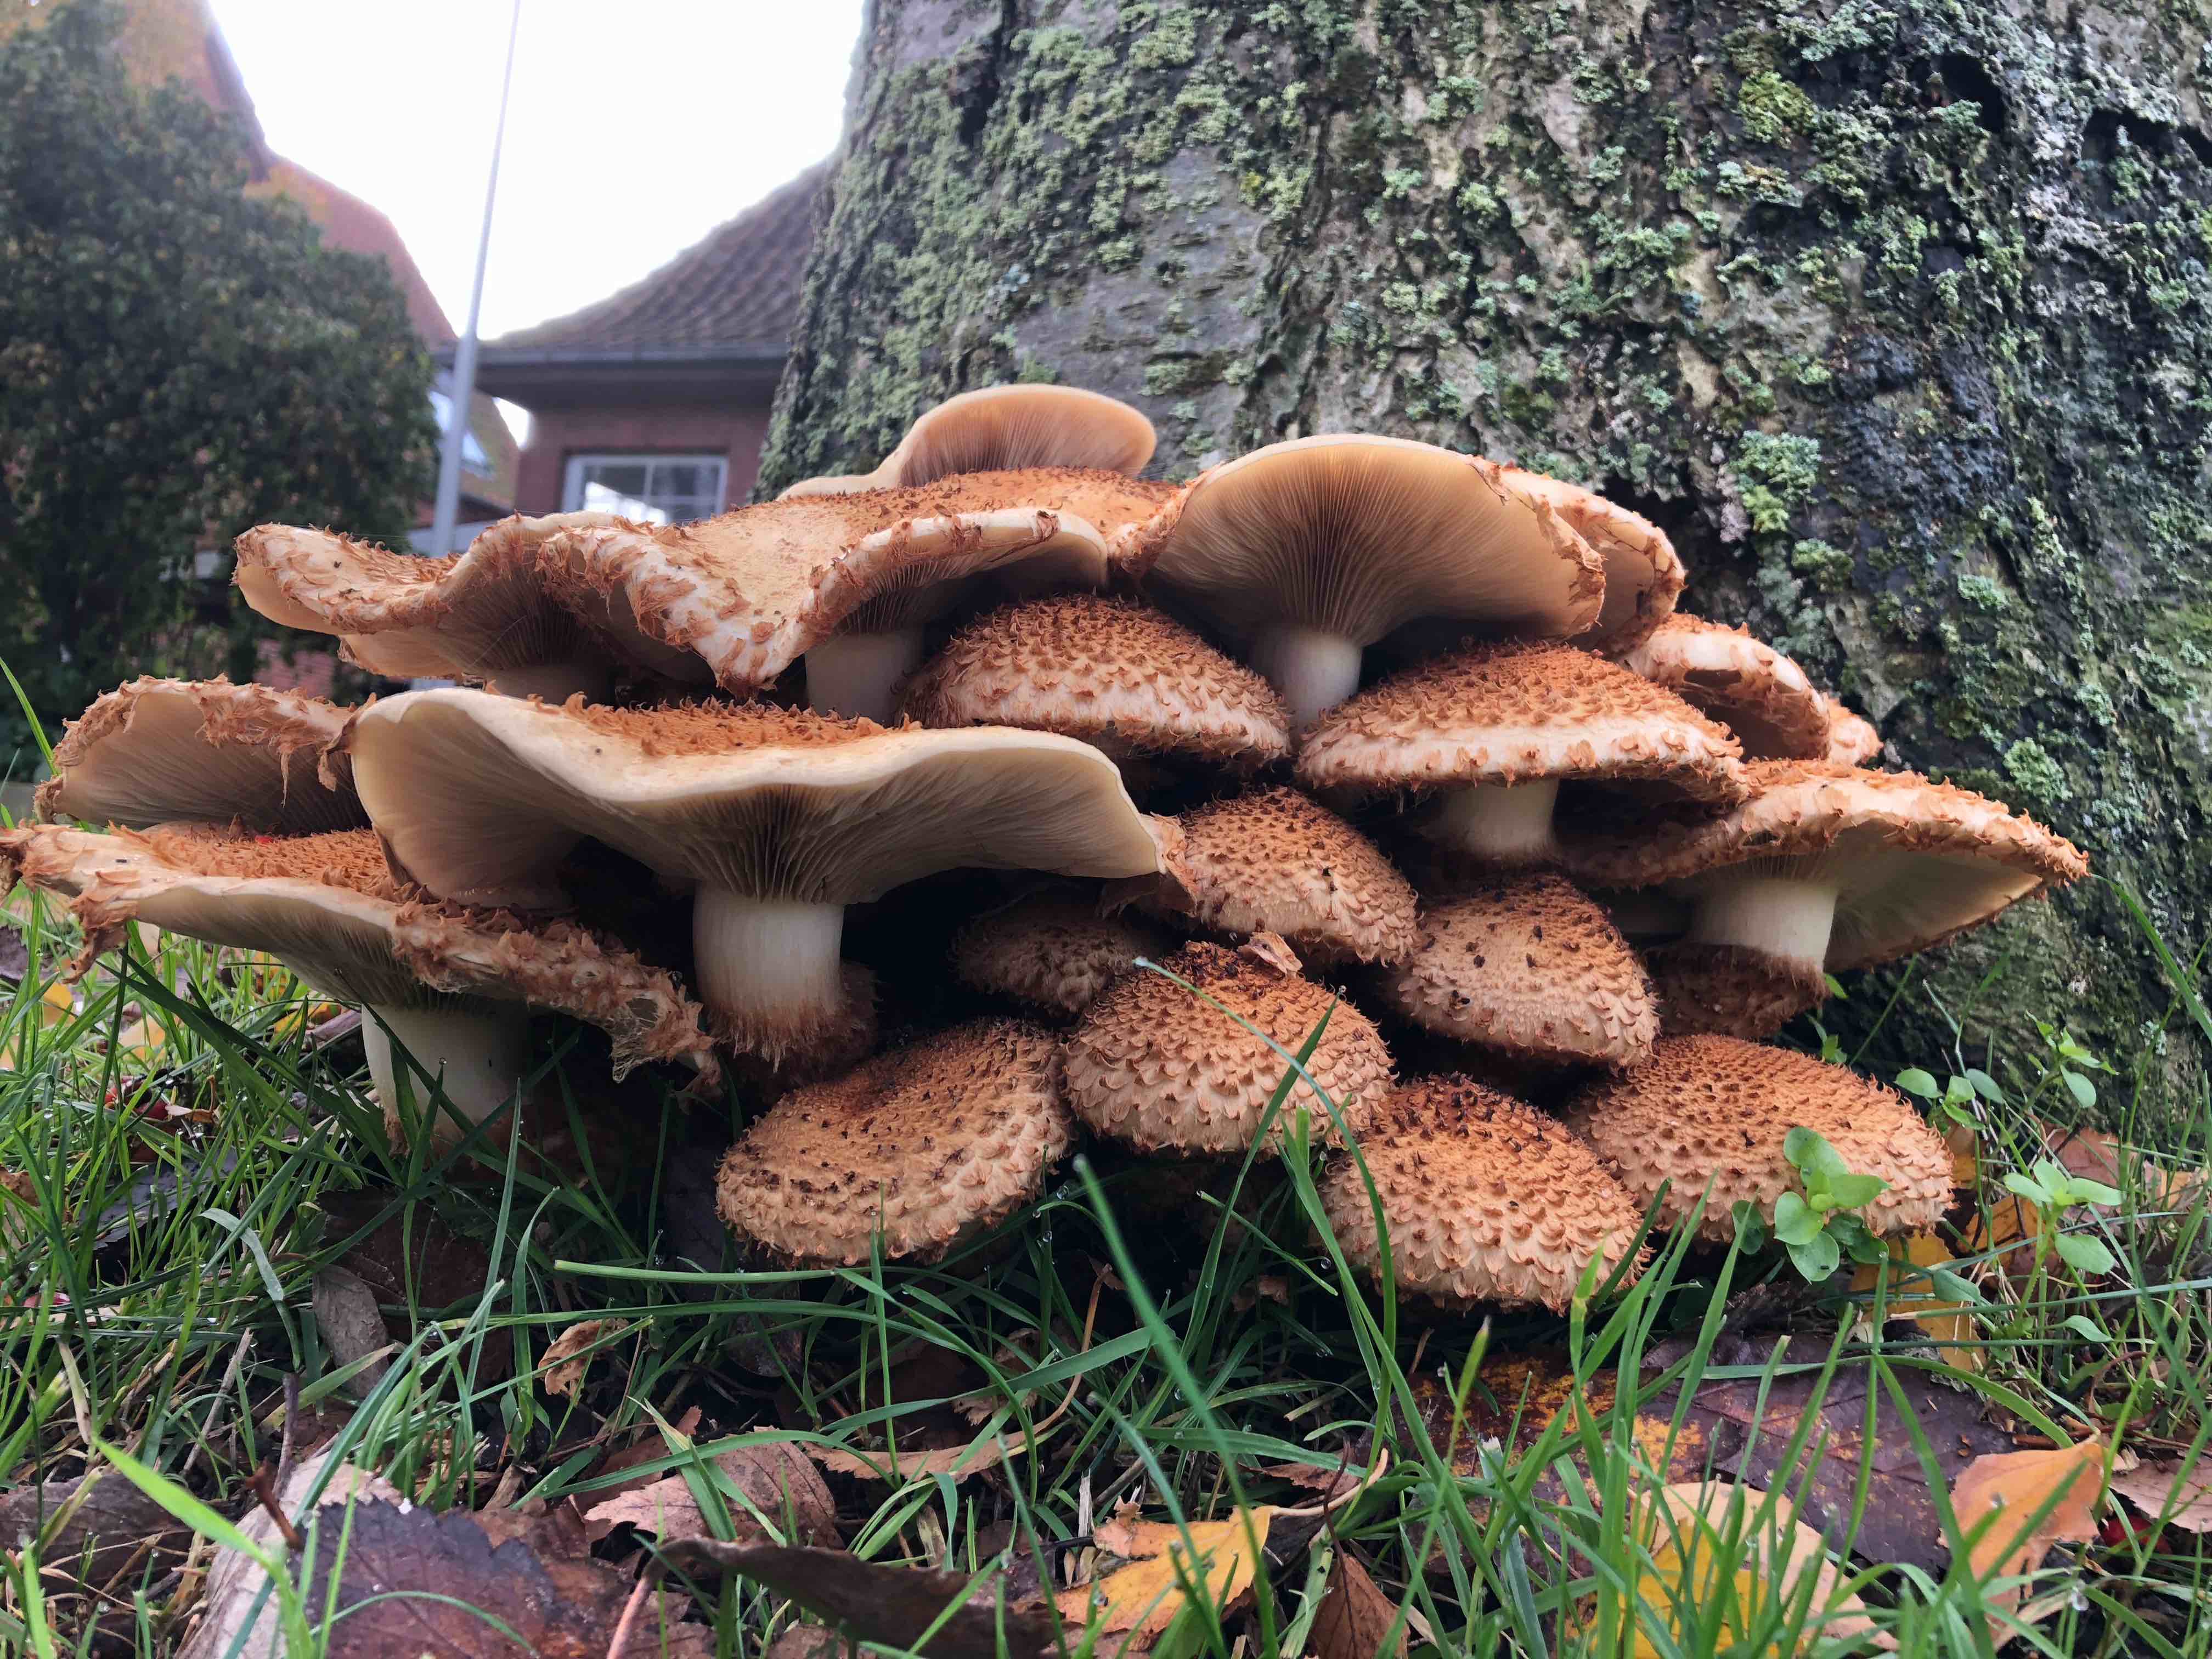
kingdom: Fungi
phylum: Basidiomycota
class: Agaricomycetes
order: Agaricales
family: Strophariaceae
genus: Pholiota
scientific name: Pholiota squarrosa
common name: krumskællet skælhat
